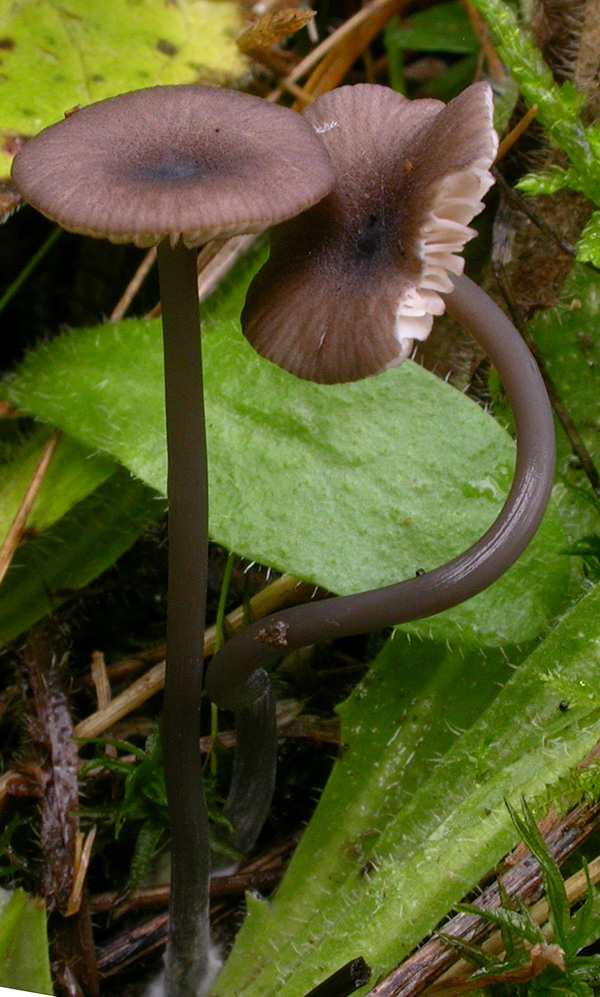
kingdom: Fungi
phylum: Basidiomycota
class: Agaricomycetes
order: Agaricales
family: Entolomataceae
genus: Entoloma
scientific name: Entoloma allospermum
